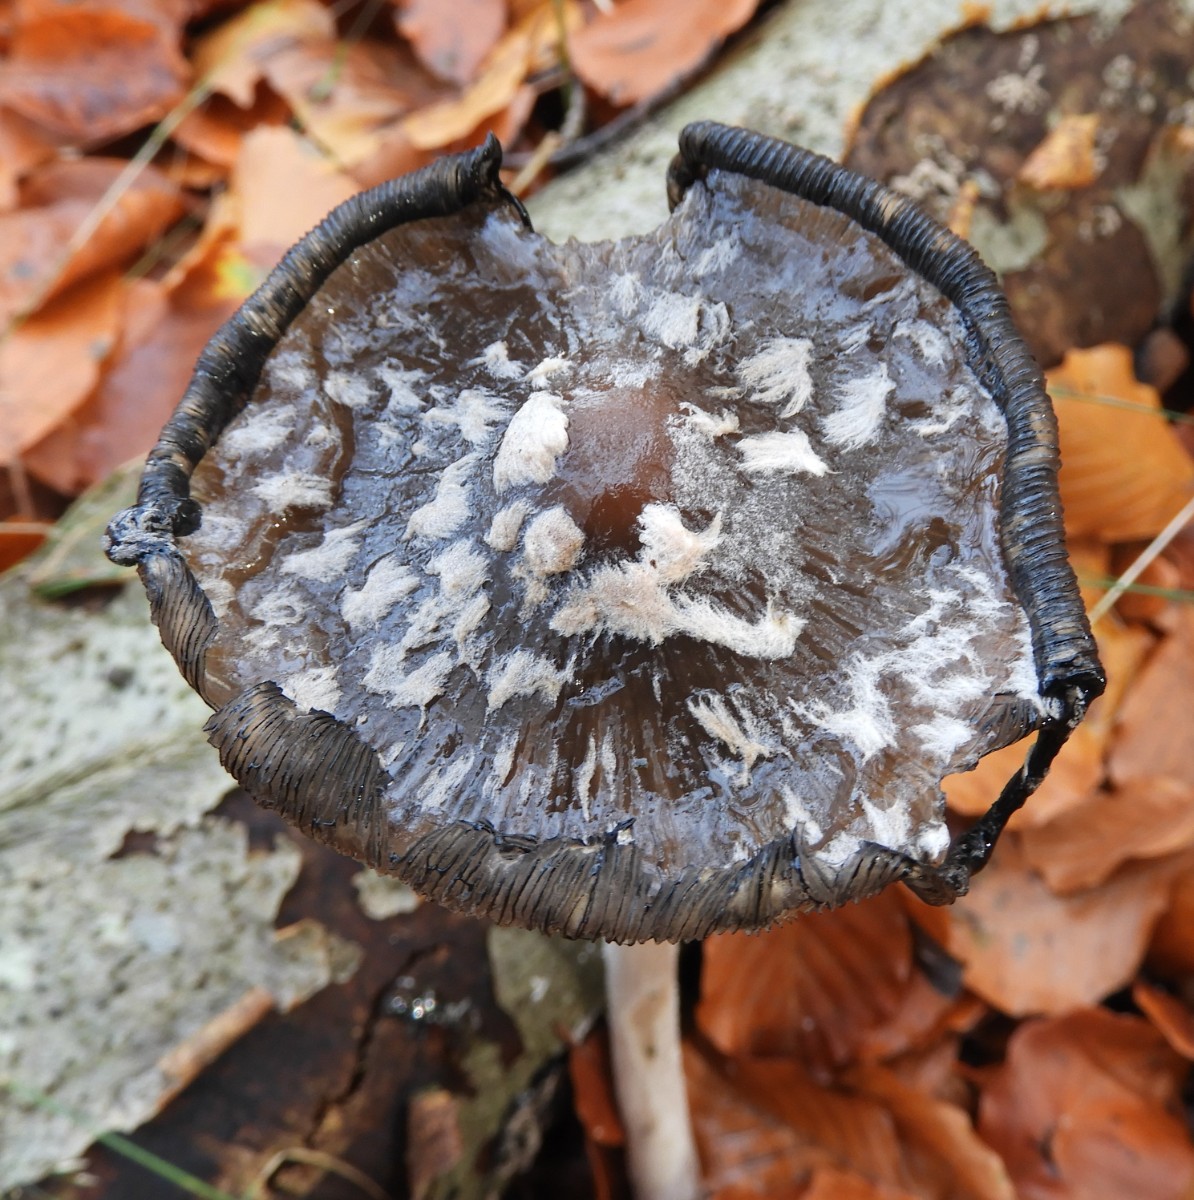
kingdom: Fungi
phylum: Basidiomycota
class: Agaricomycetes
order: Agaricales
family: Psathyrellaceae
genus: Coprinopsis
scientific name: Coprinopsis picacea
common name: skade-blækhat
